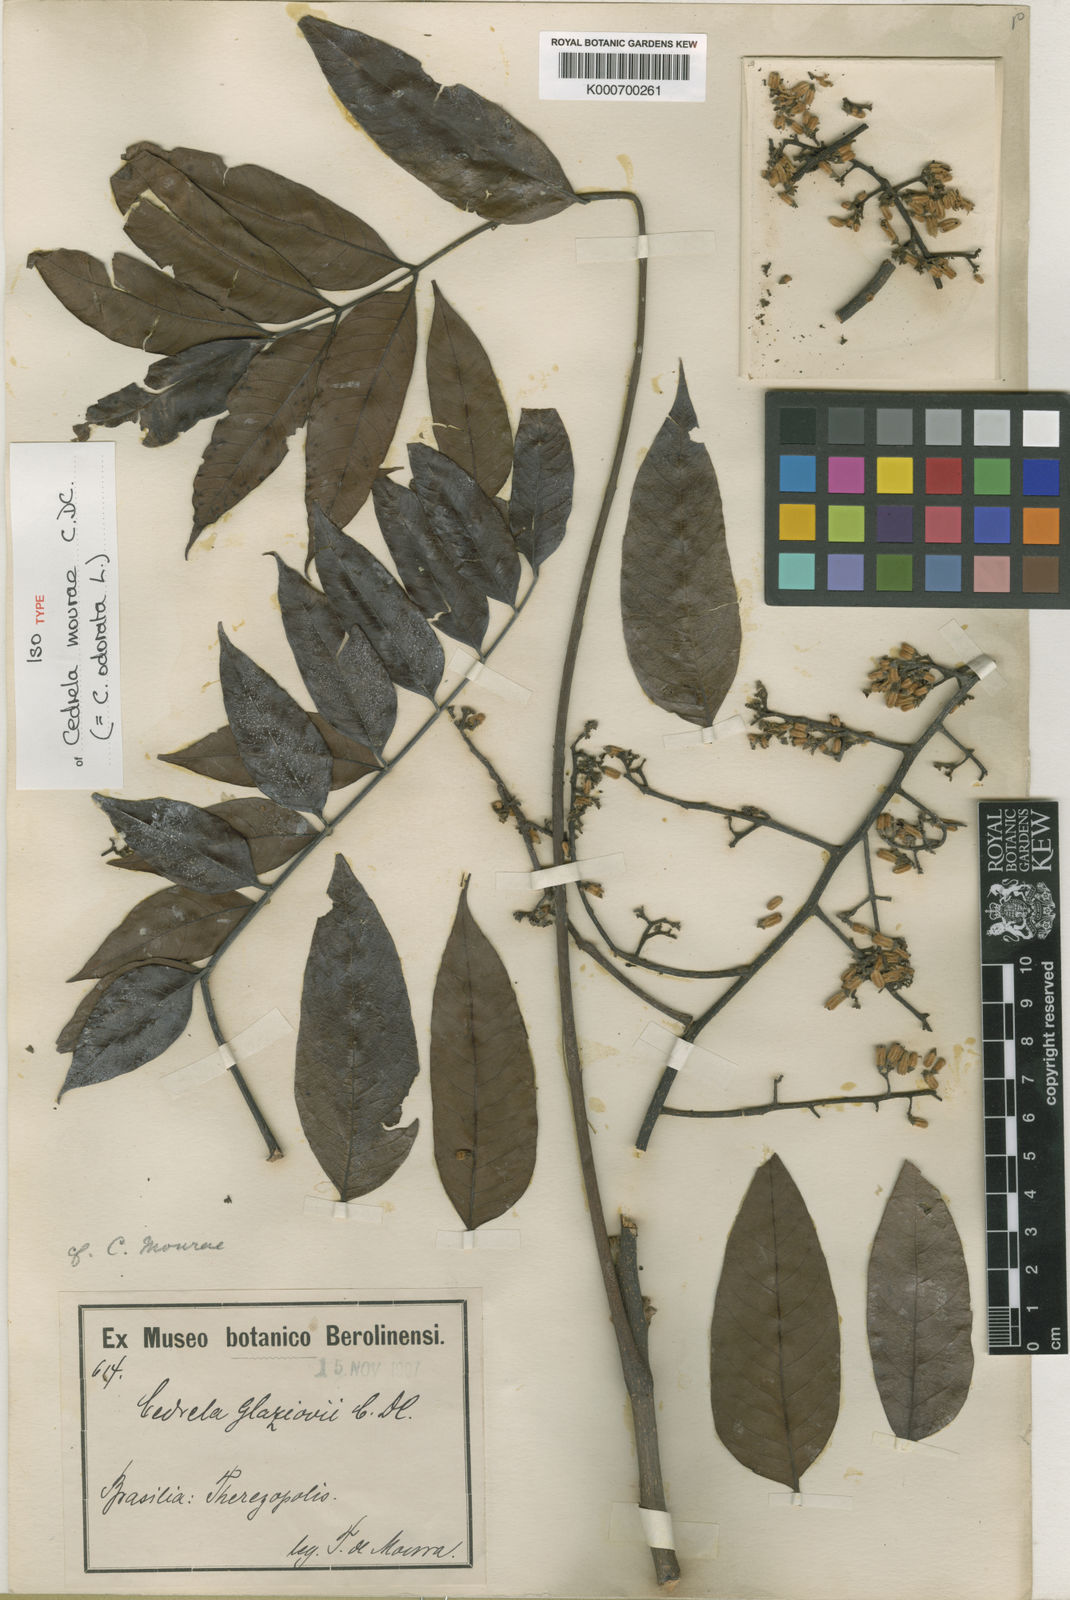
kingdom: Plantae
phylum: Tracheophyta
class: Magnoliopsida
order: Sapindales
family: Meliaceae
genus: Cedrela
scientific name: Cedrela odorata
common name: Red cedar
